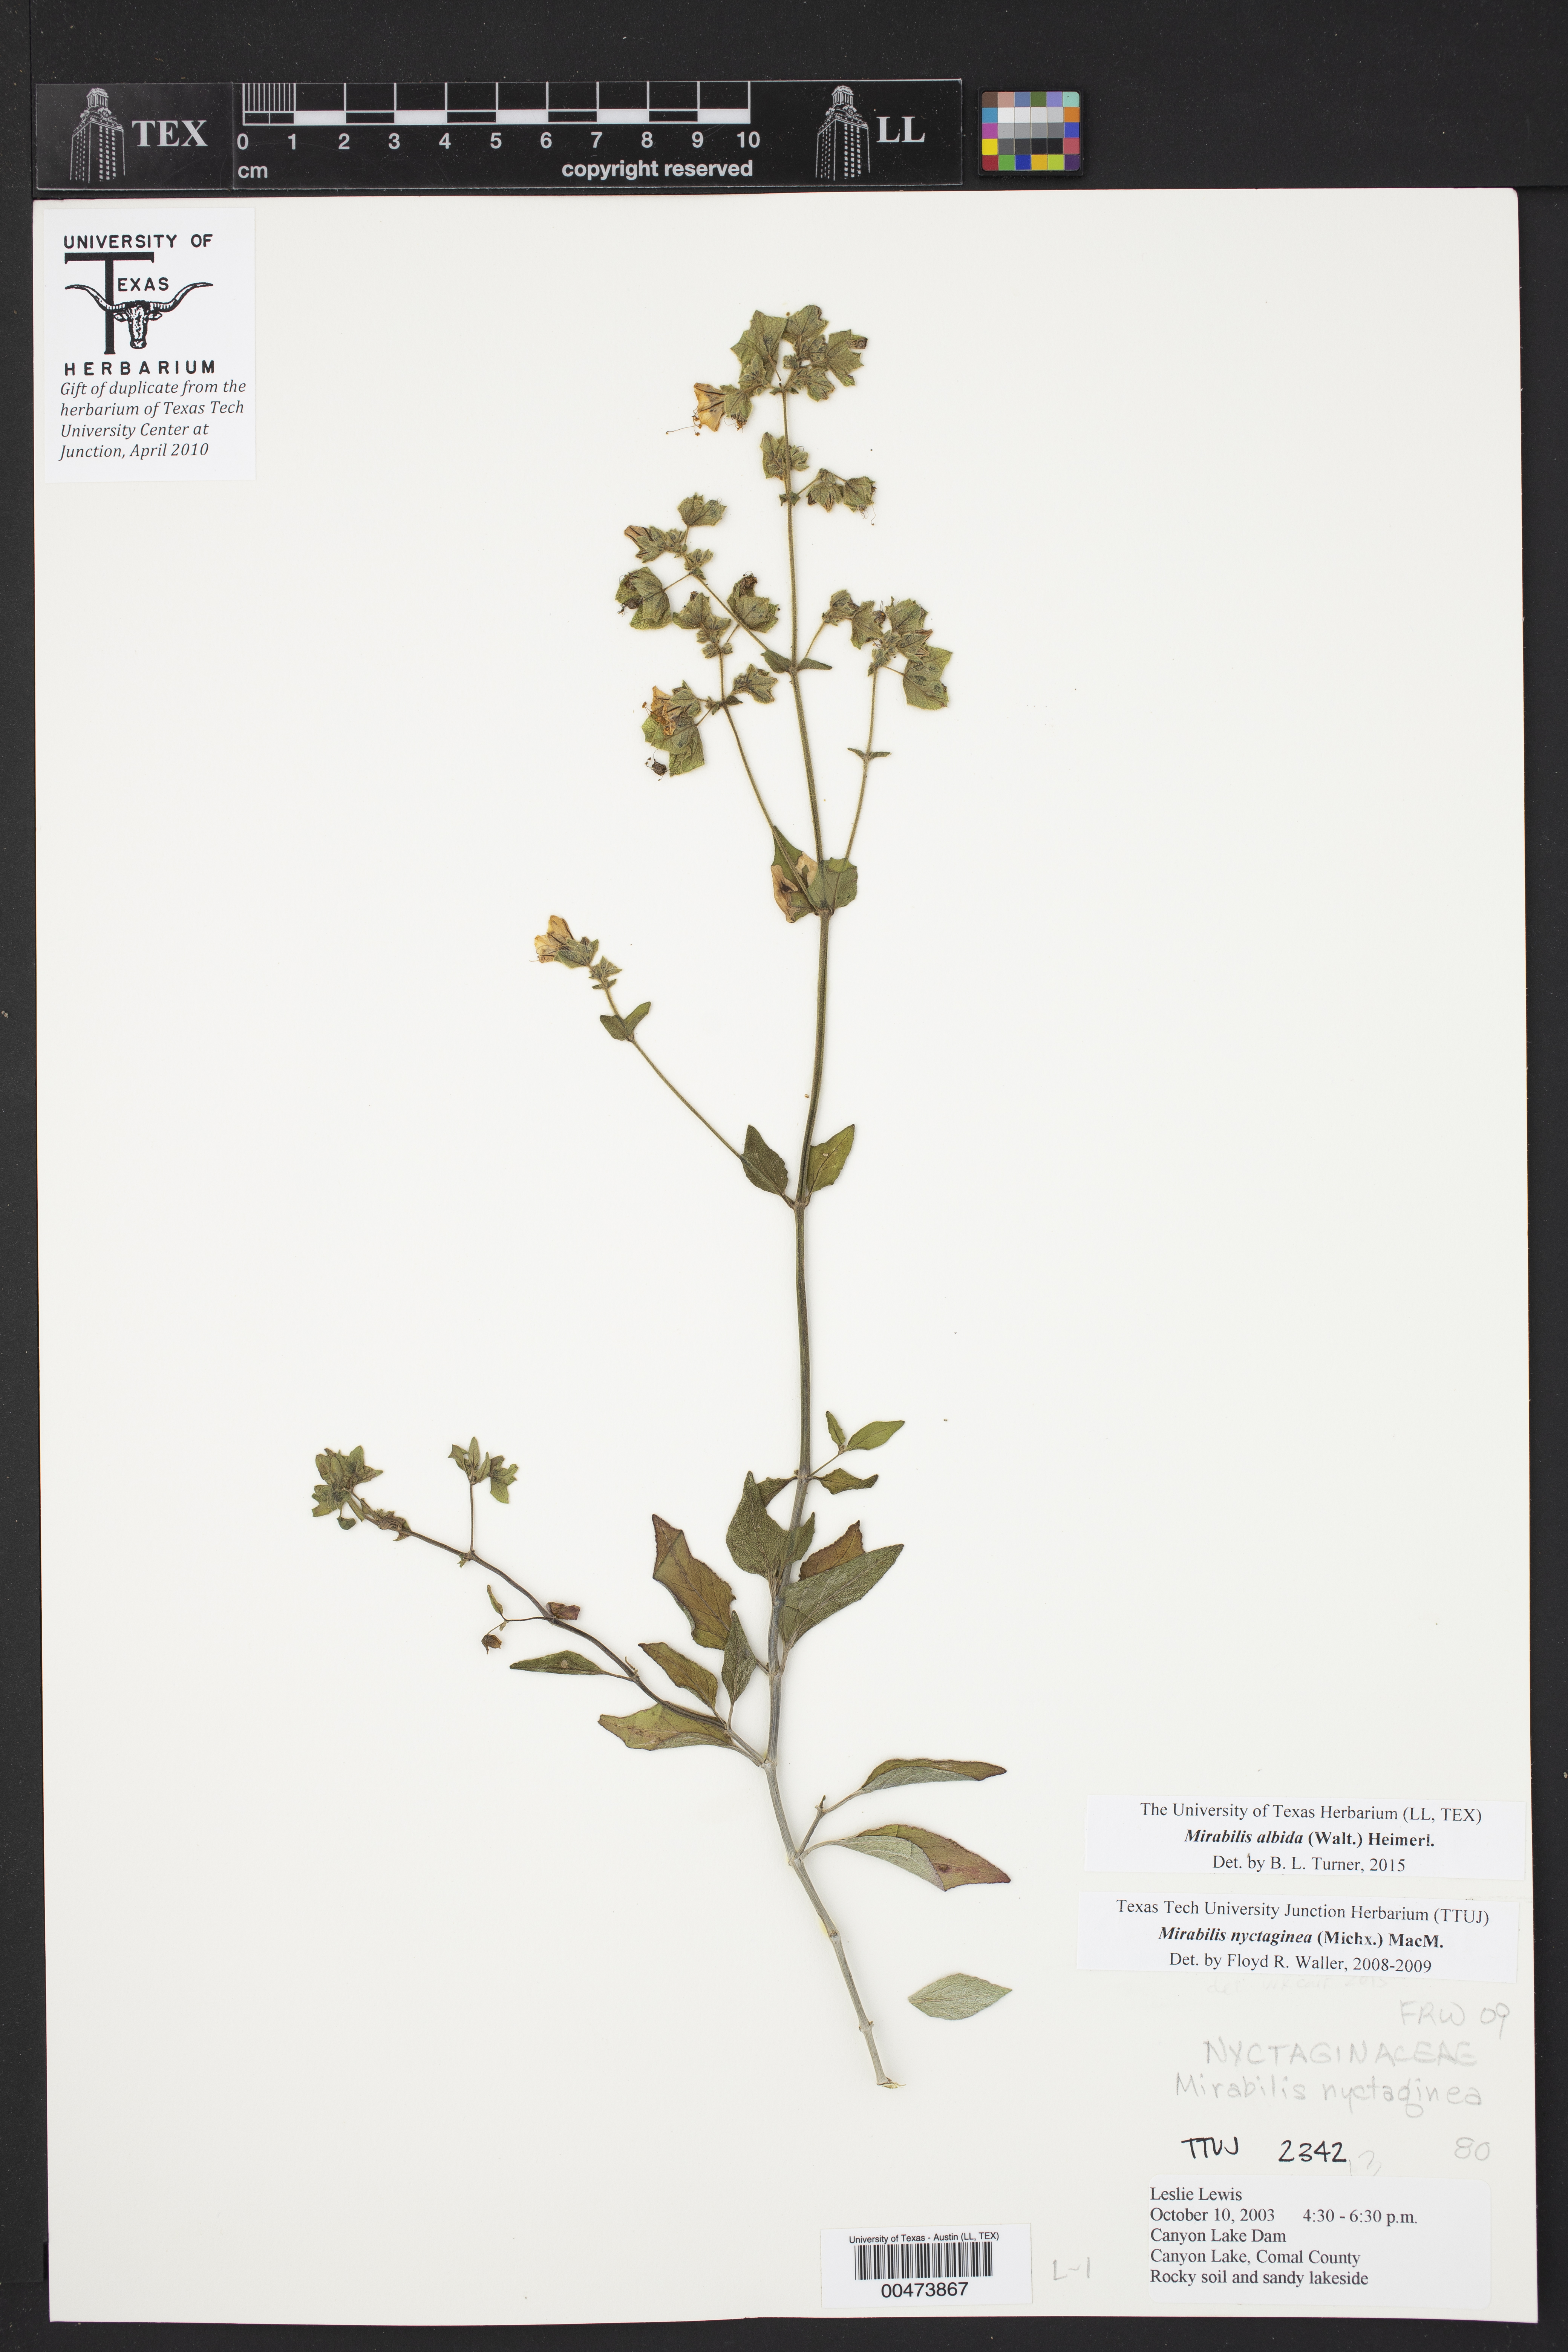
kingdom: Plantae
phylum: Tracheophyta
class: Magnoliopsida
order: Caryophyllales
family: Nyctaginaceae
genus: Mirabilis
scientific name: Mirabilis albida
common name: Hairy four-o'clock
